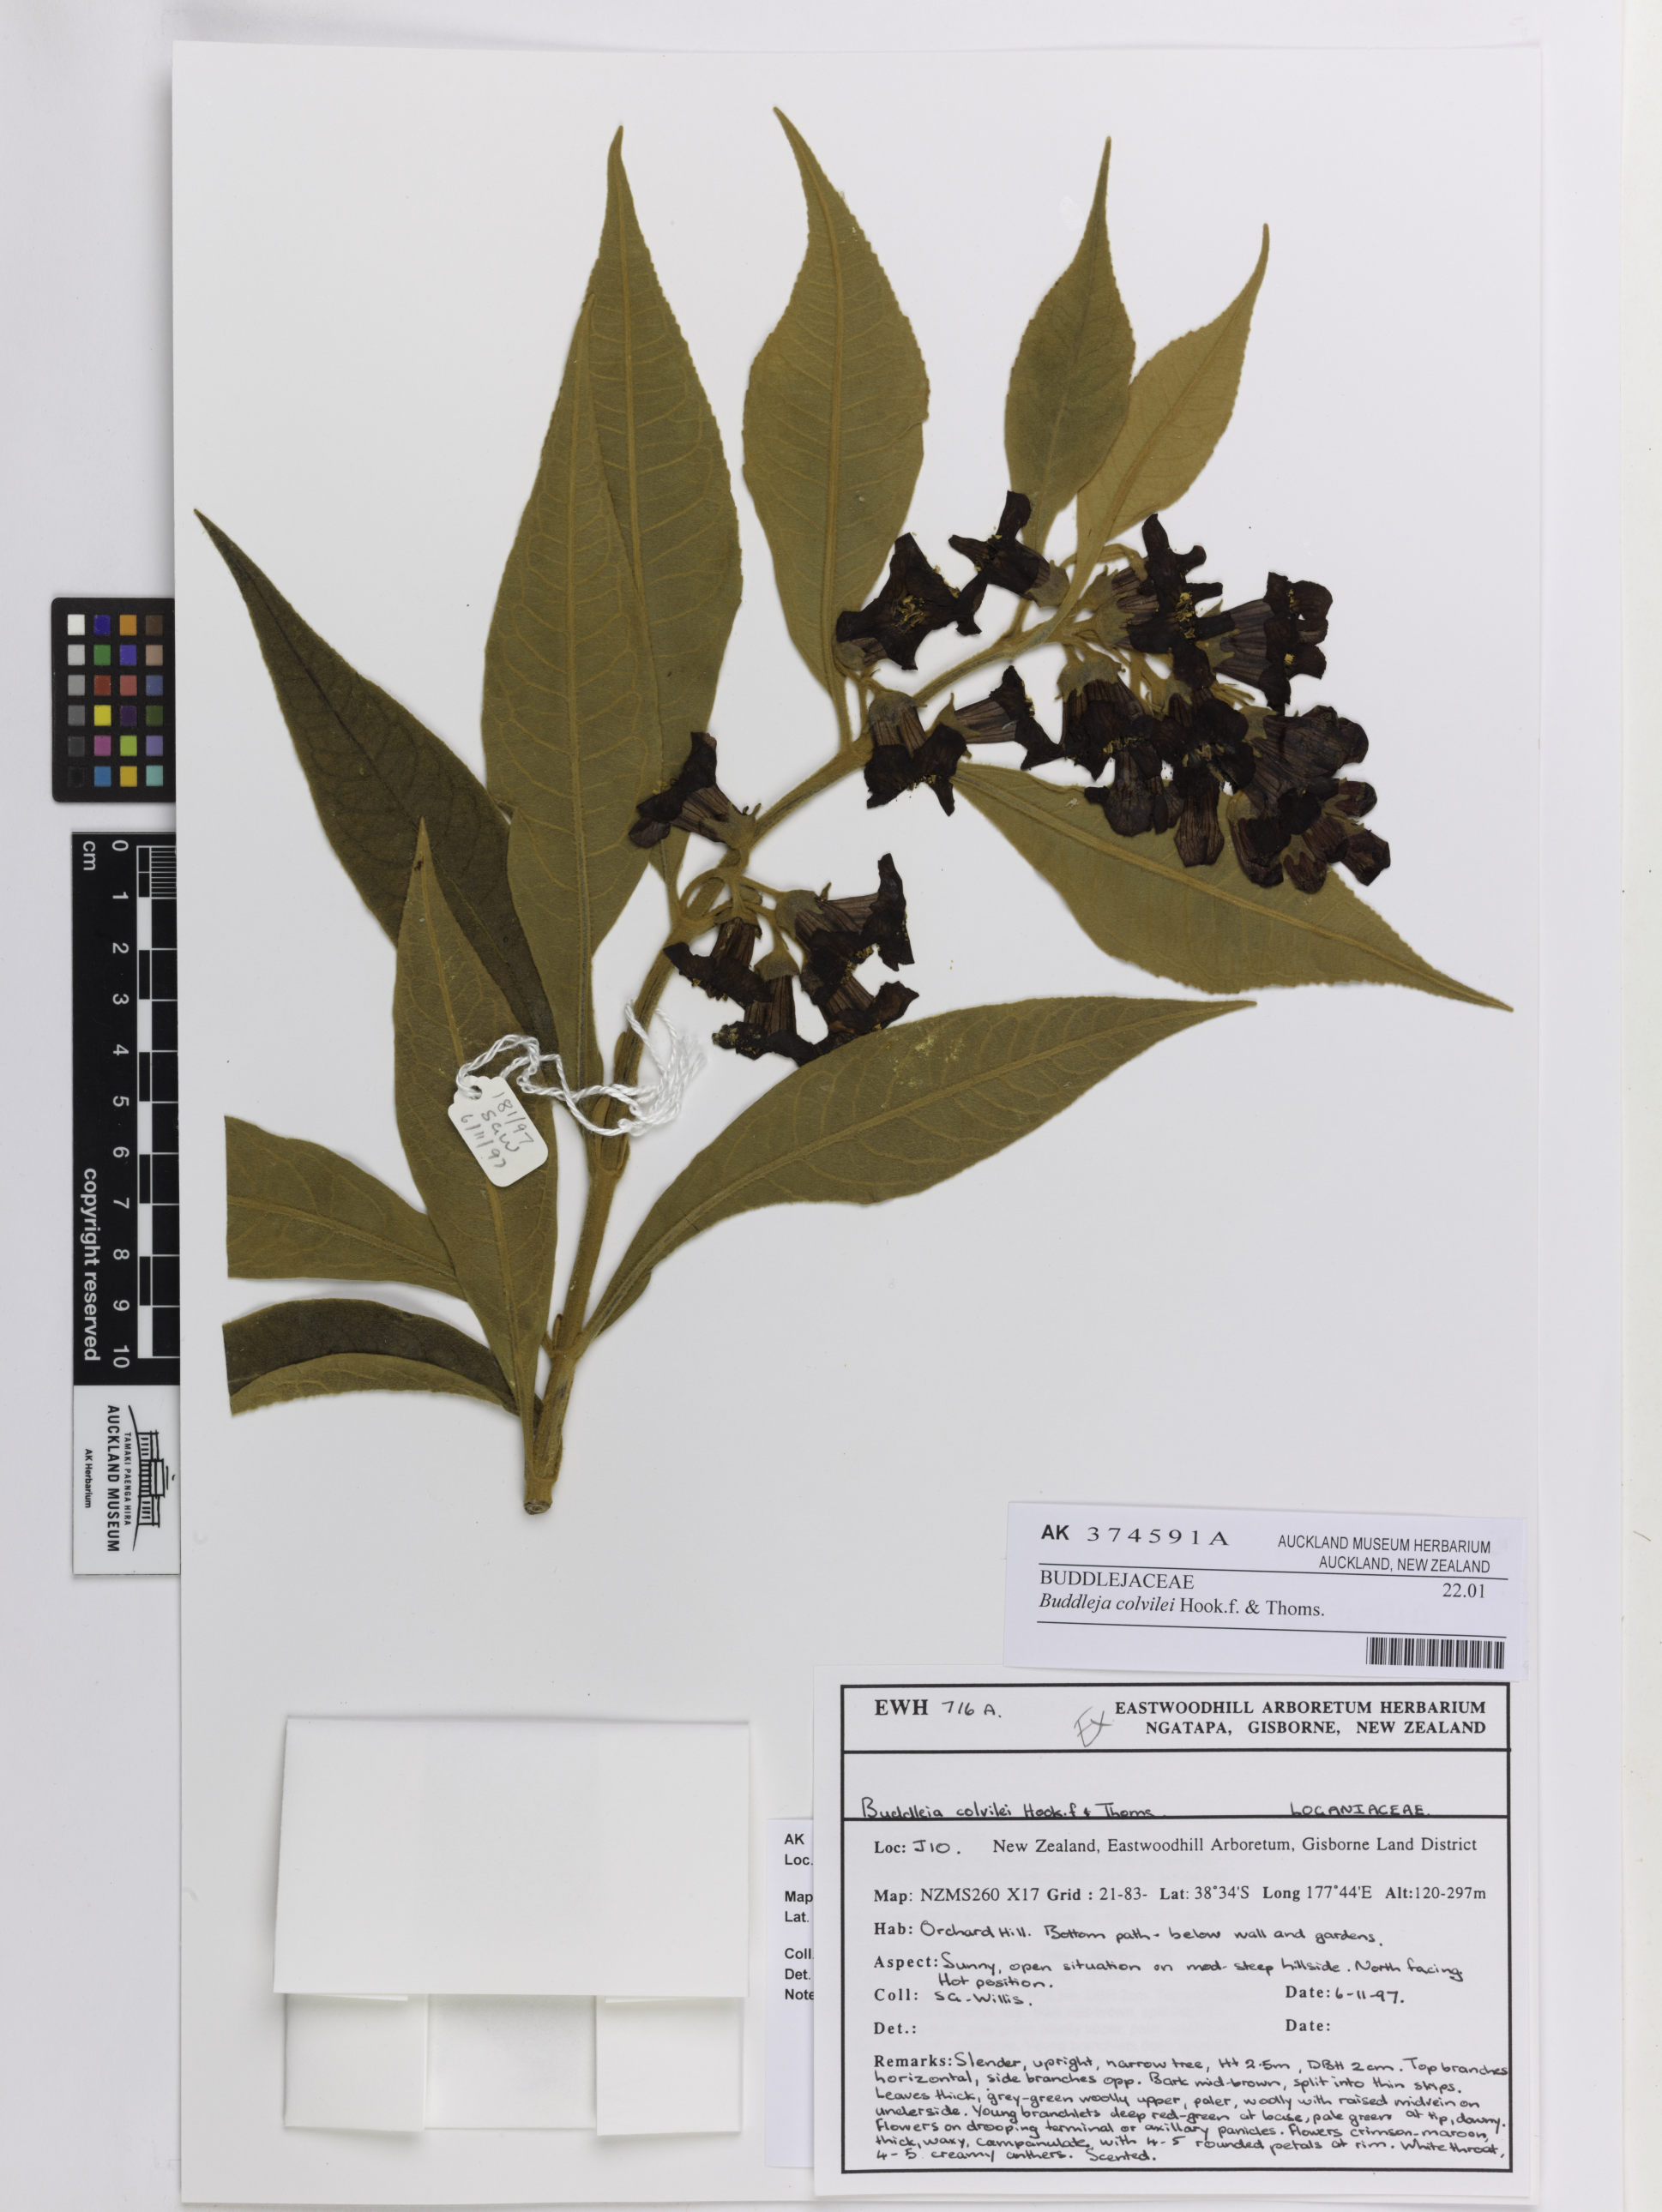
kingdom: Plantae
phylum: Tracheophyta
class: Magnoliopsida
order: Lamiales
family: Scrophulariaceae
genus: Buddleja
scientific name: Buddleja colvilei
